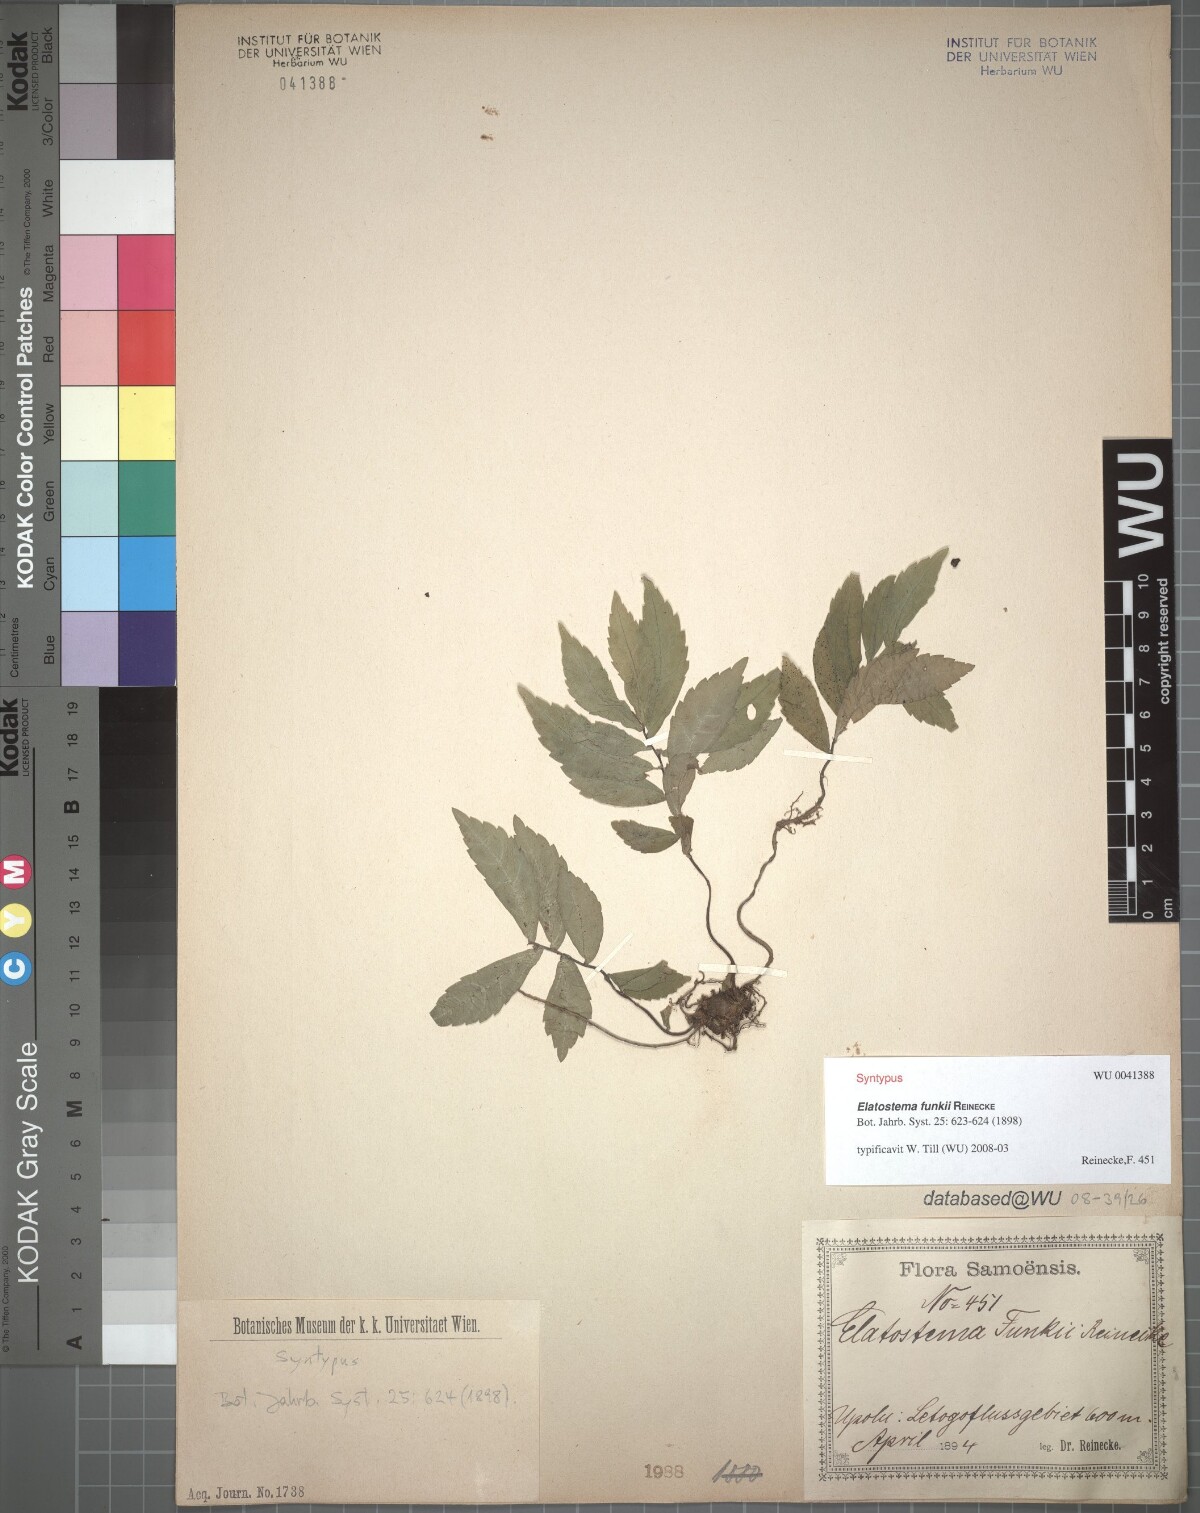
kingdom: Plantae
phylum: Tracheophyta
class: Magnoliopsida
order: Rosales
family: Urticaceae
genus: Elatostema
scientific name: Elatostema funkii
